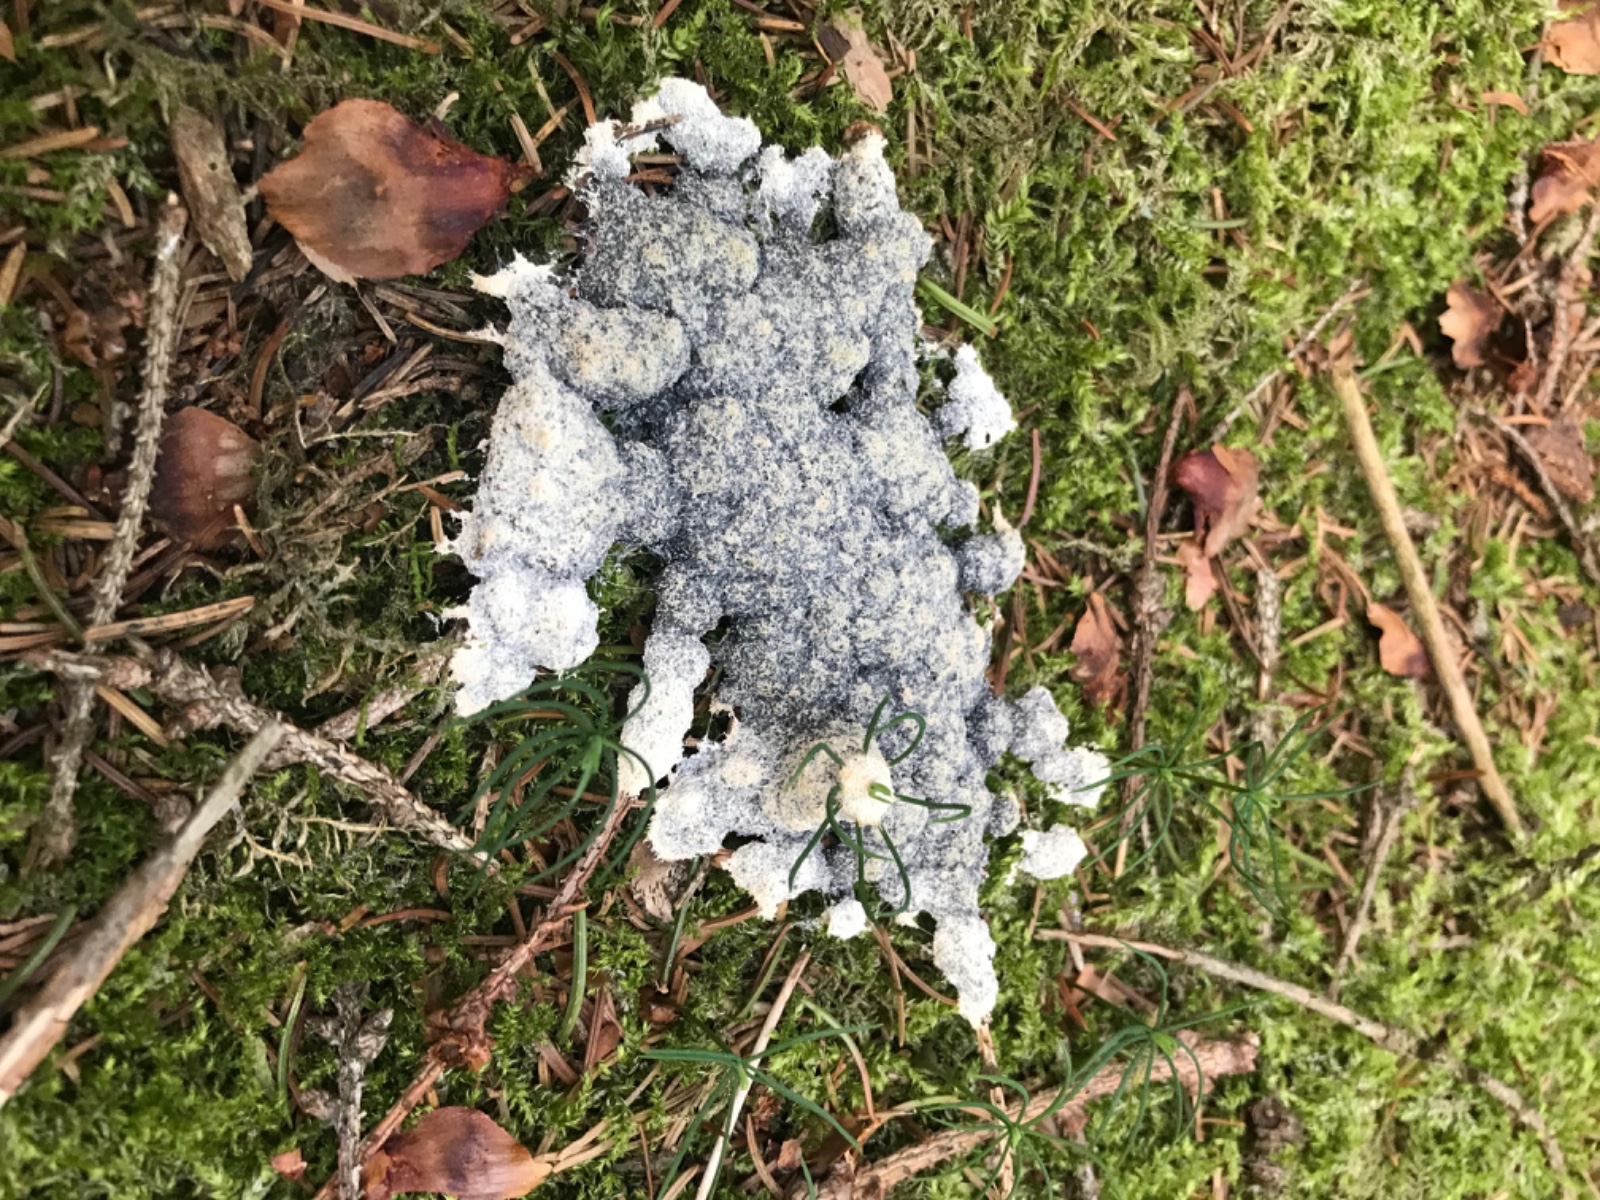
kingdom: Protozoa
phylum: Mycetozoa
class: Myxomycetes
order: Physarales
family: Physaraceae
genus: Fuligo
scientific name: Fuligo
